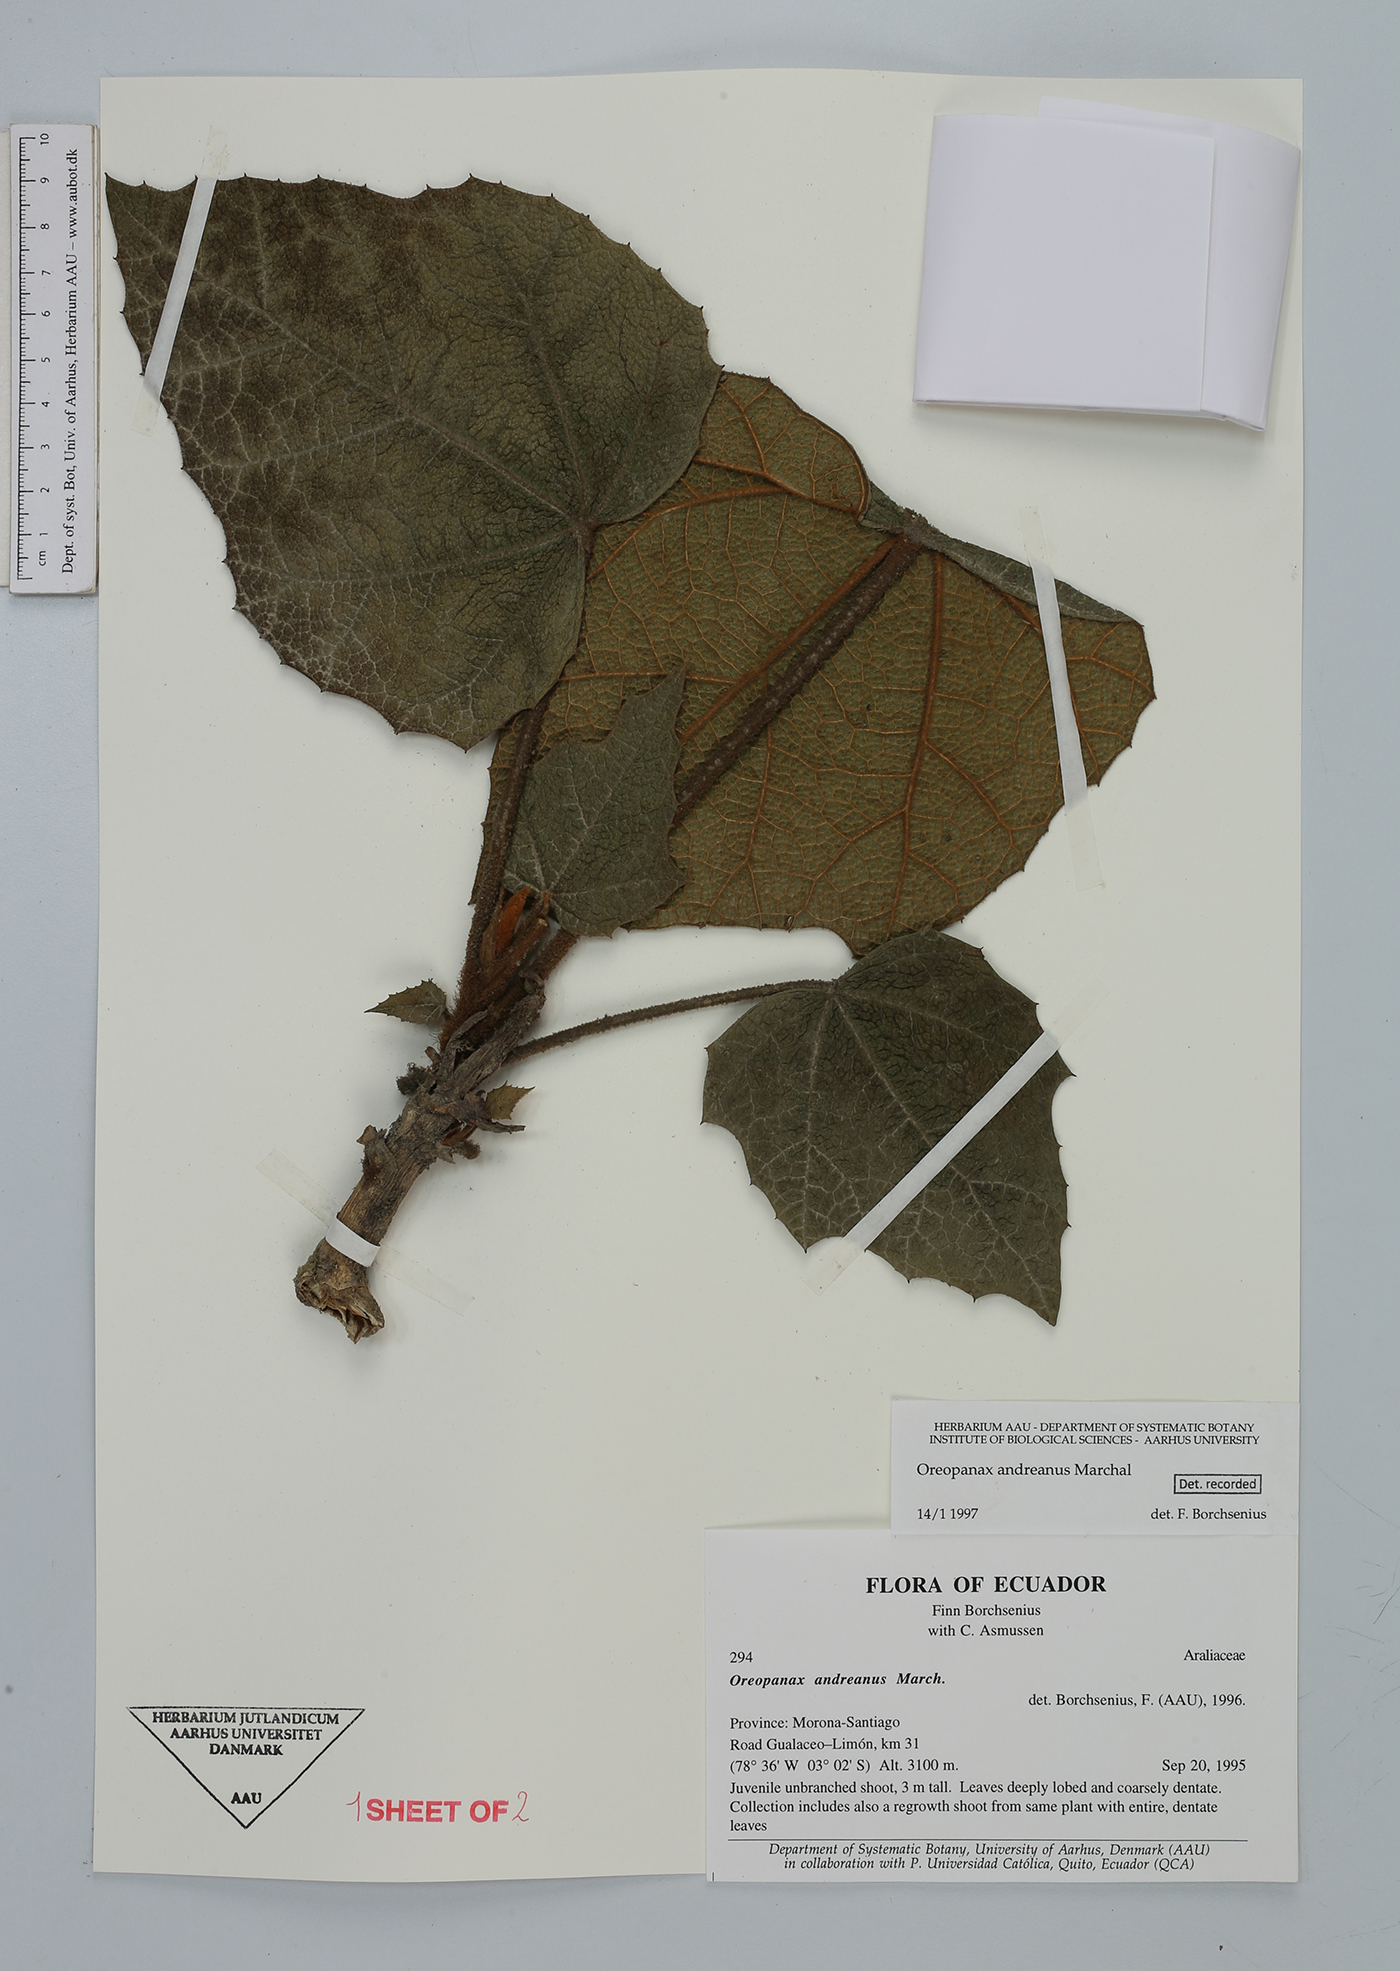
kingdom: Plantae
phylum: Tracheophyta
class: Magnoliopsida
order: Apiales
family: Araliaceae
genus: Oreopanax
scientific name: Oreopanax andreanus
